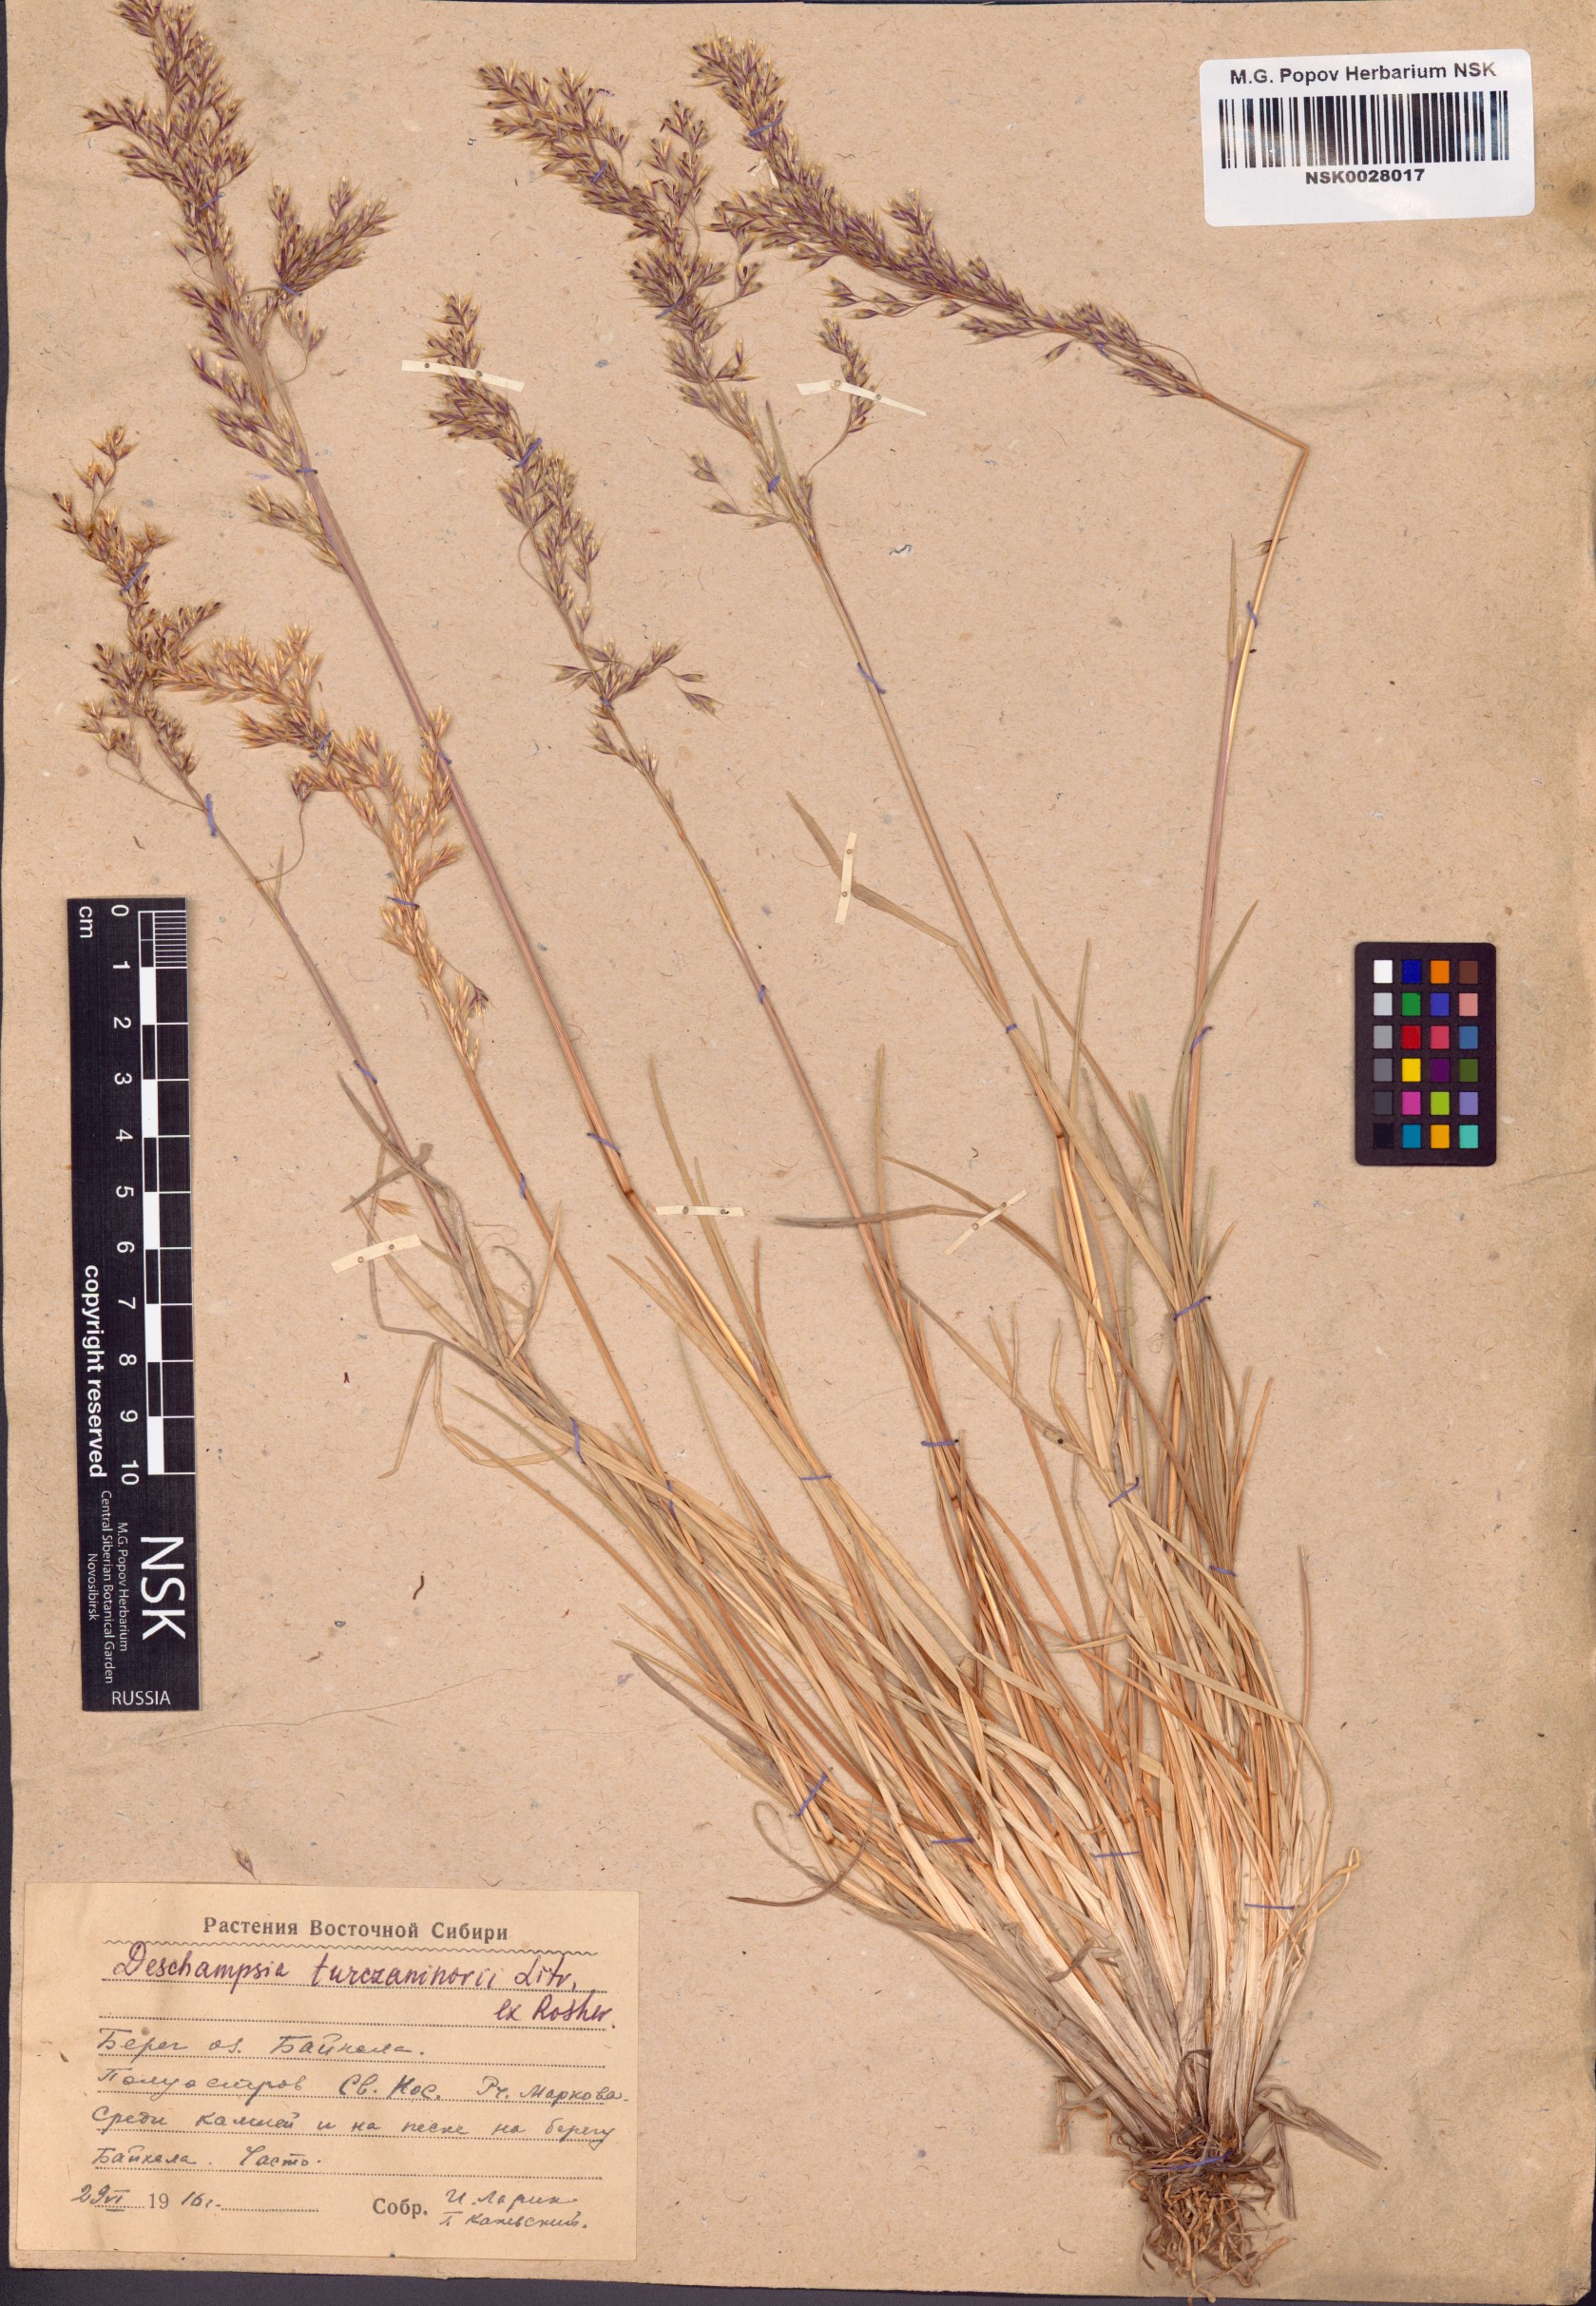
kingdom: Plantae
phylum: Tracheophyta
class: Liliopsida
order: Poales
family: Poaceae
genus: Deschampsia
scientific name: Deschampsia cespitosa
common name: Tufted hair-grass
